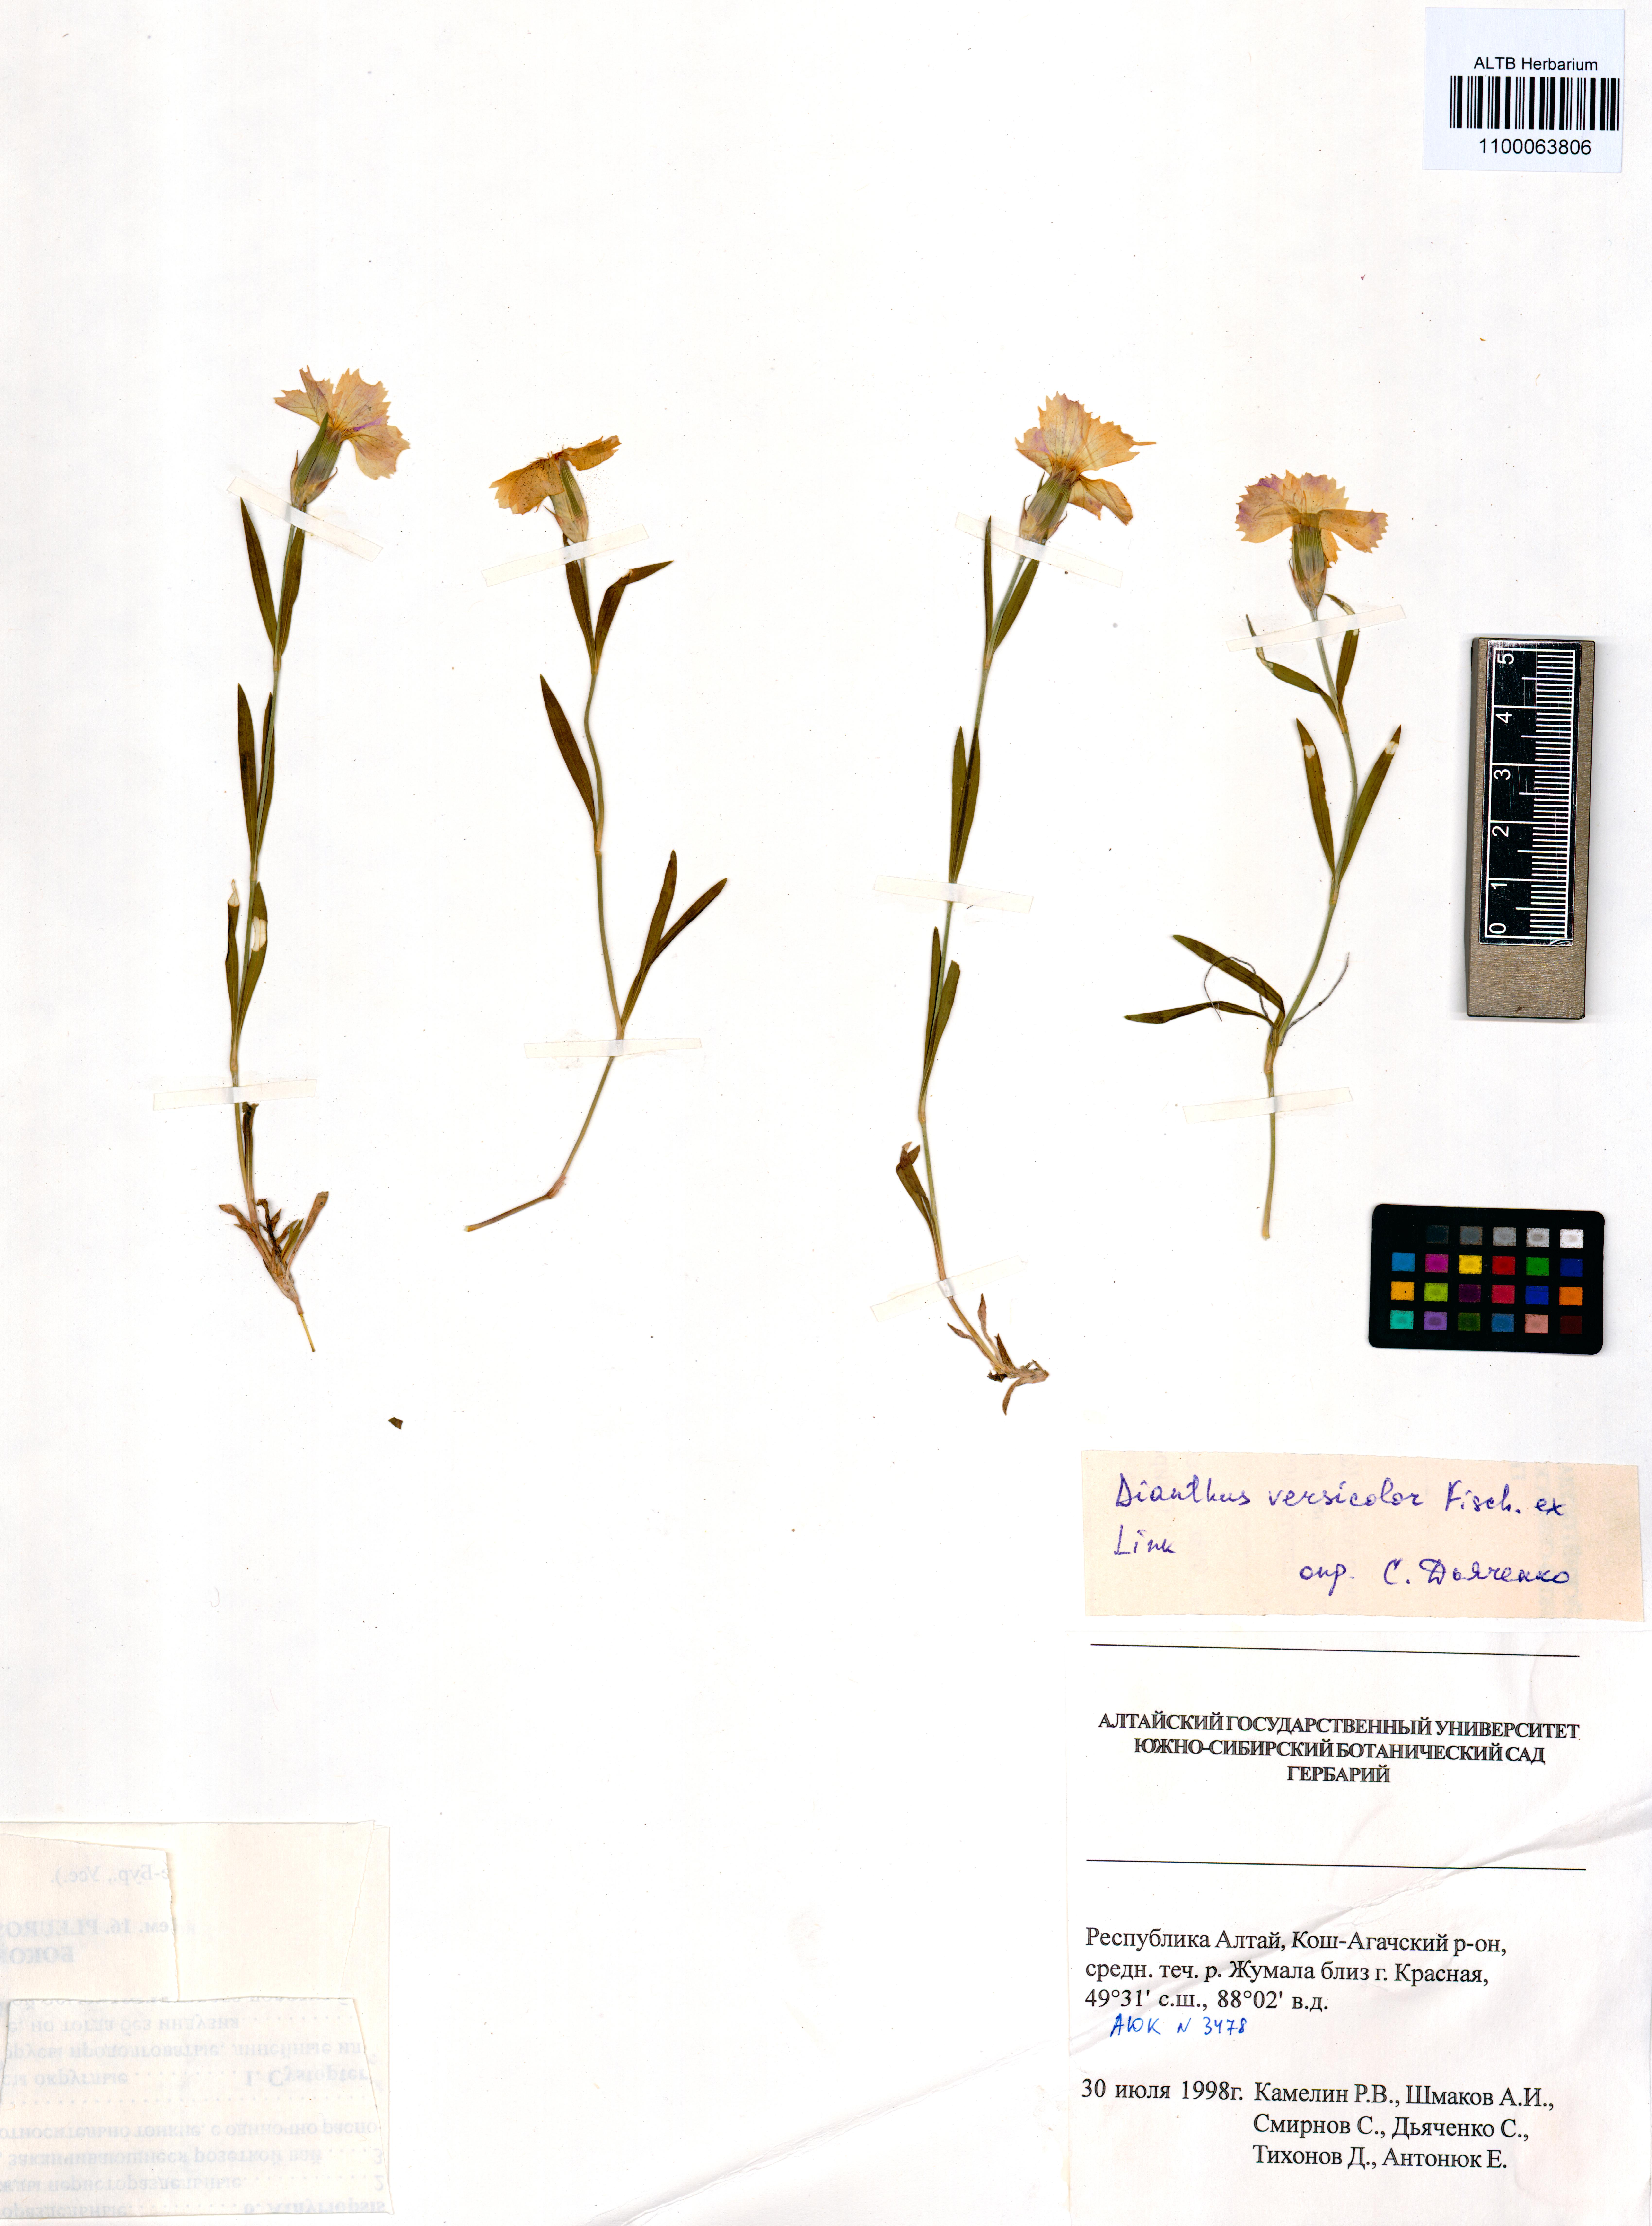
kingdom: Plantae
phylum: Tracheophyta
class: Magnoliopsida
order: Caryophyllales
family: Caryophyllaceae
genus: Dianthus
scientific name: Dianthus chinensis
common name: Rainbow pink
